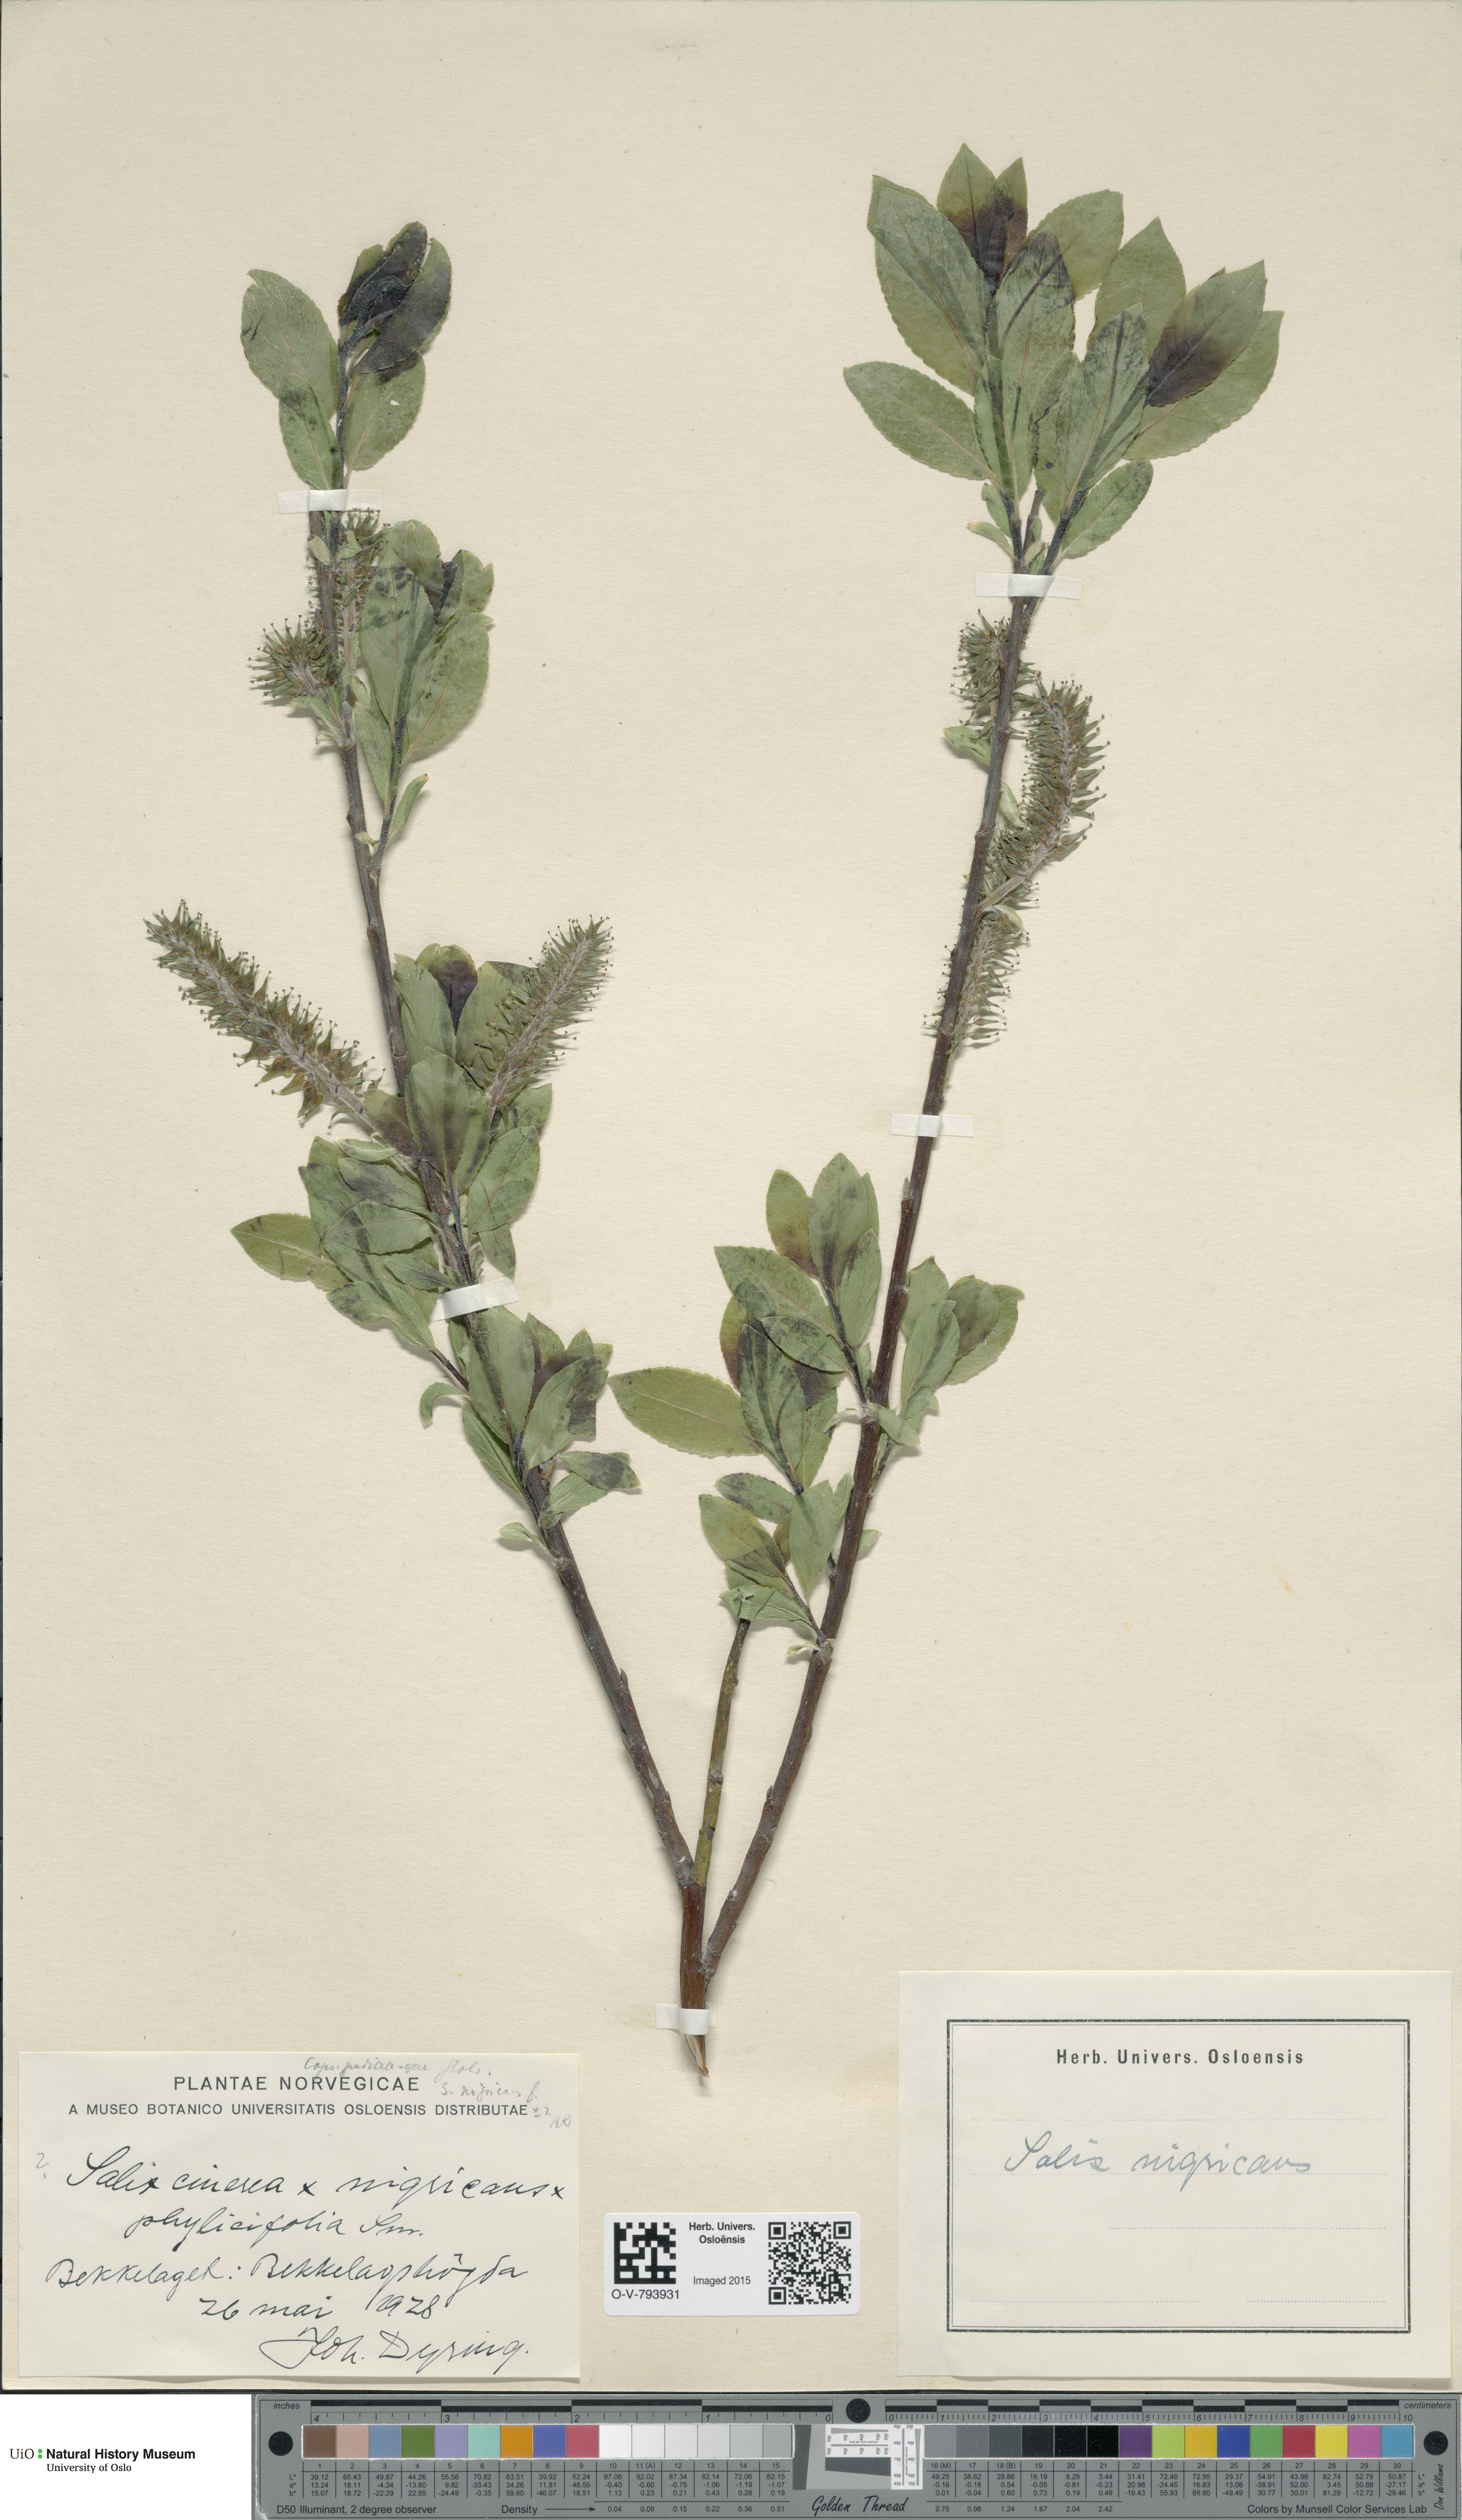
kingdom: Plantae
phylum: Tracheophyta
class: Magnoliopsida
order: Malpighiales
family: Salicaceae
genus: Salix
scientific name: Salix myrsinifolia
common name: Dark-leaved willow
